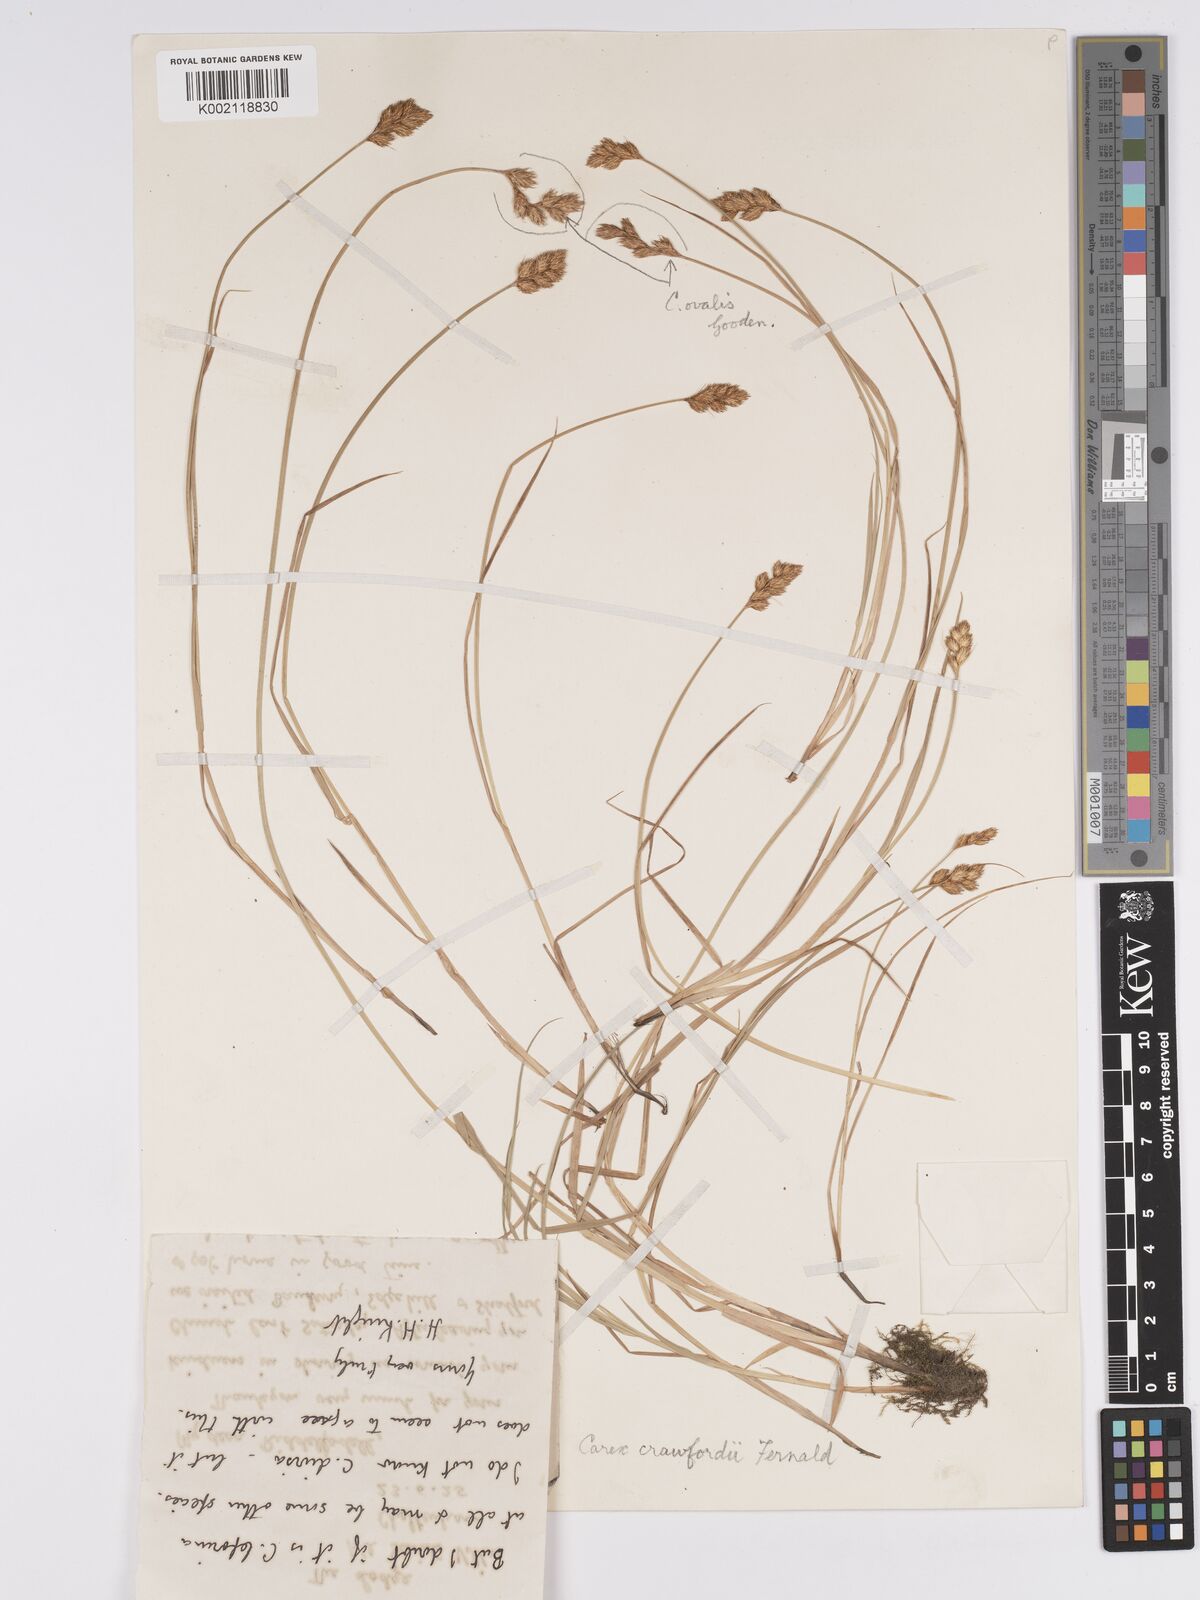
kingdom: Plantae
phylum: Tracheophyta
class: Liliopsida
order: Poales
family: Cyperaceae
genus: Carex
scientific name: Carex crawfordii
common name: Crawford's sedge
